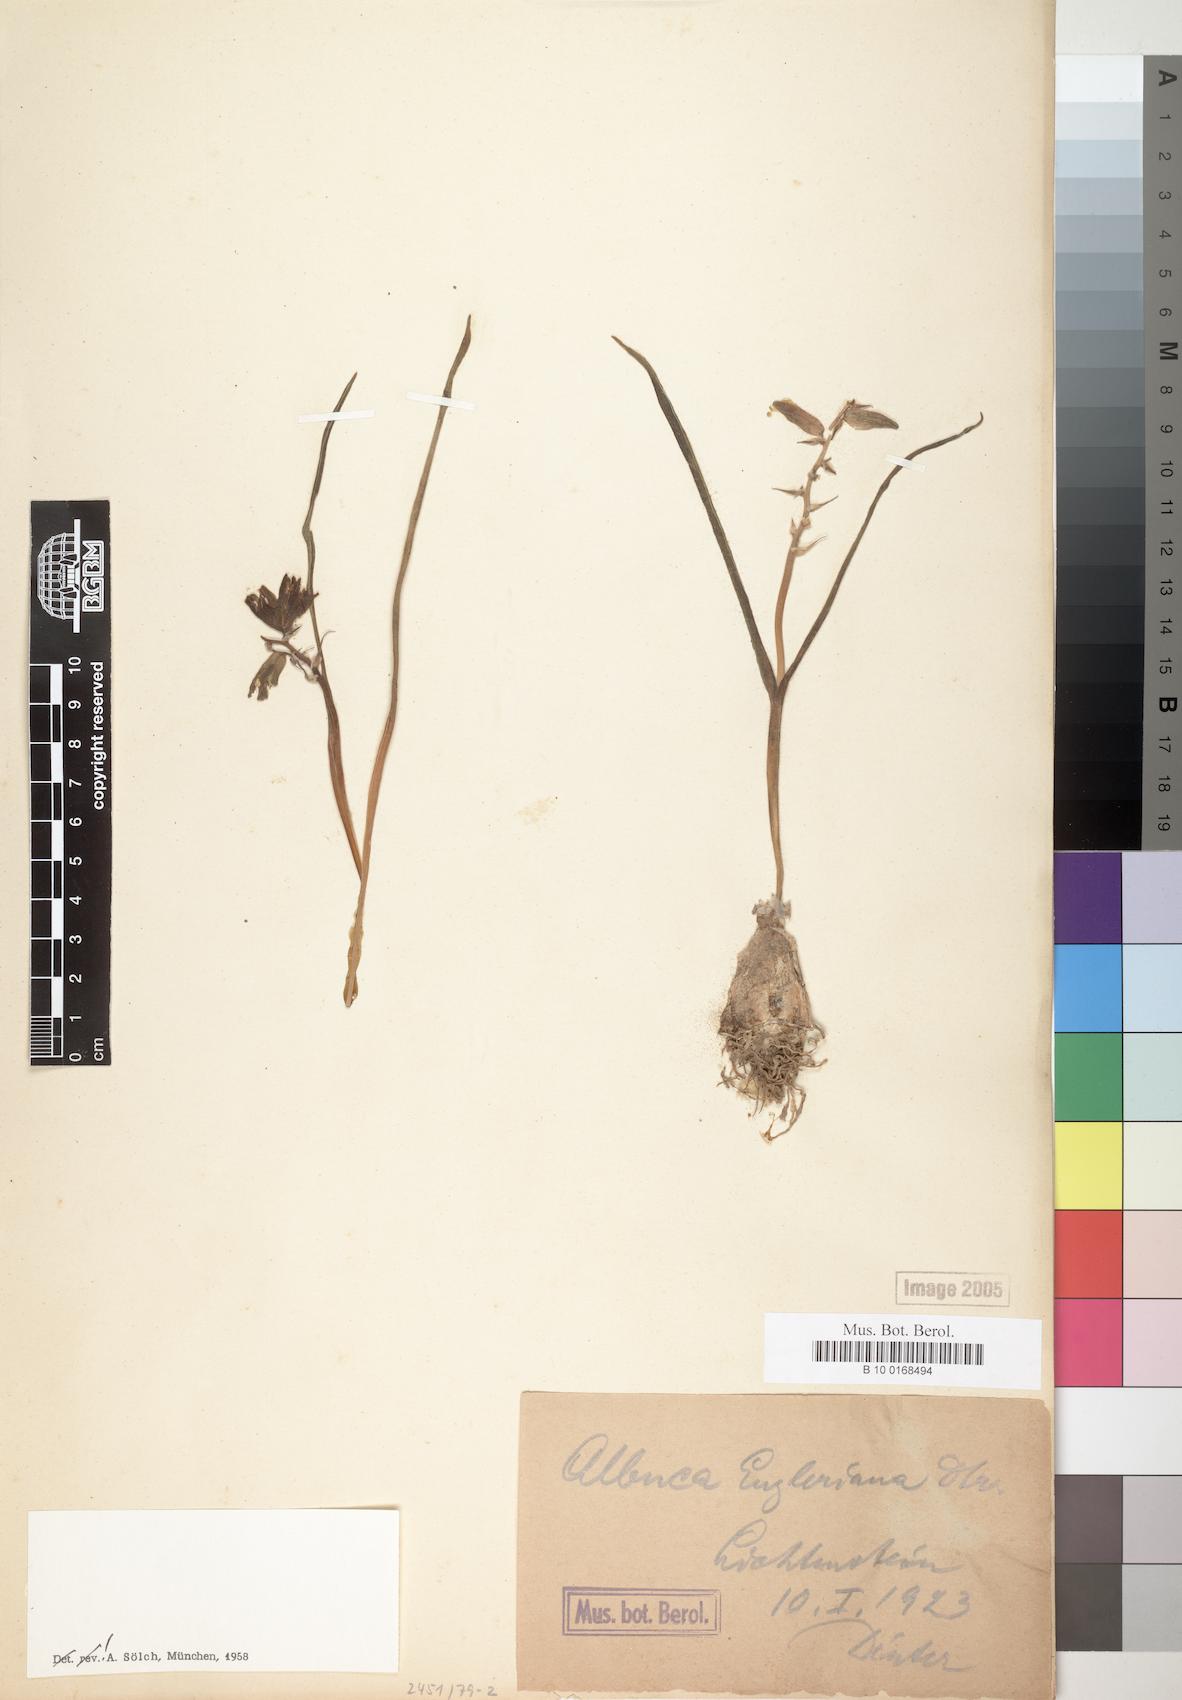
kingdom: Plantae
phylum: Tracheophyta
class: Liliopsida
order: Asparagales
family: Asparagaceae
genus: Albuca
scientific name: Albuca engleriana
